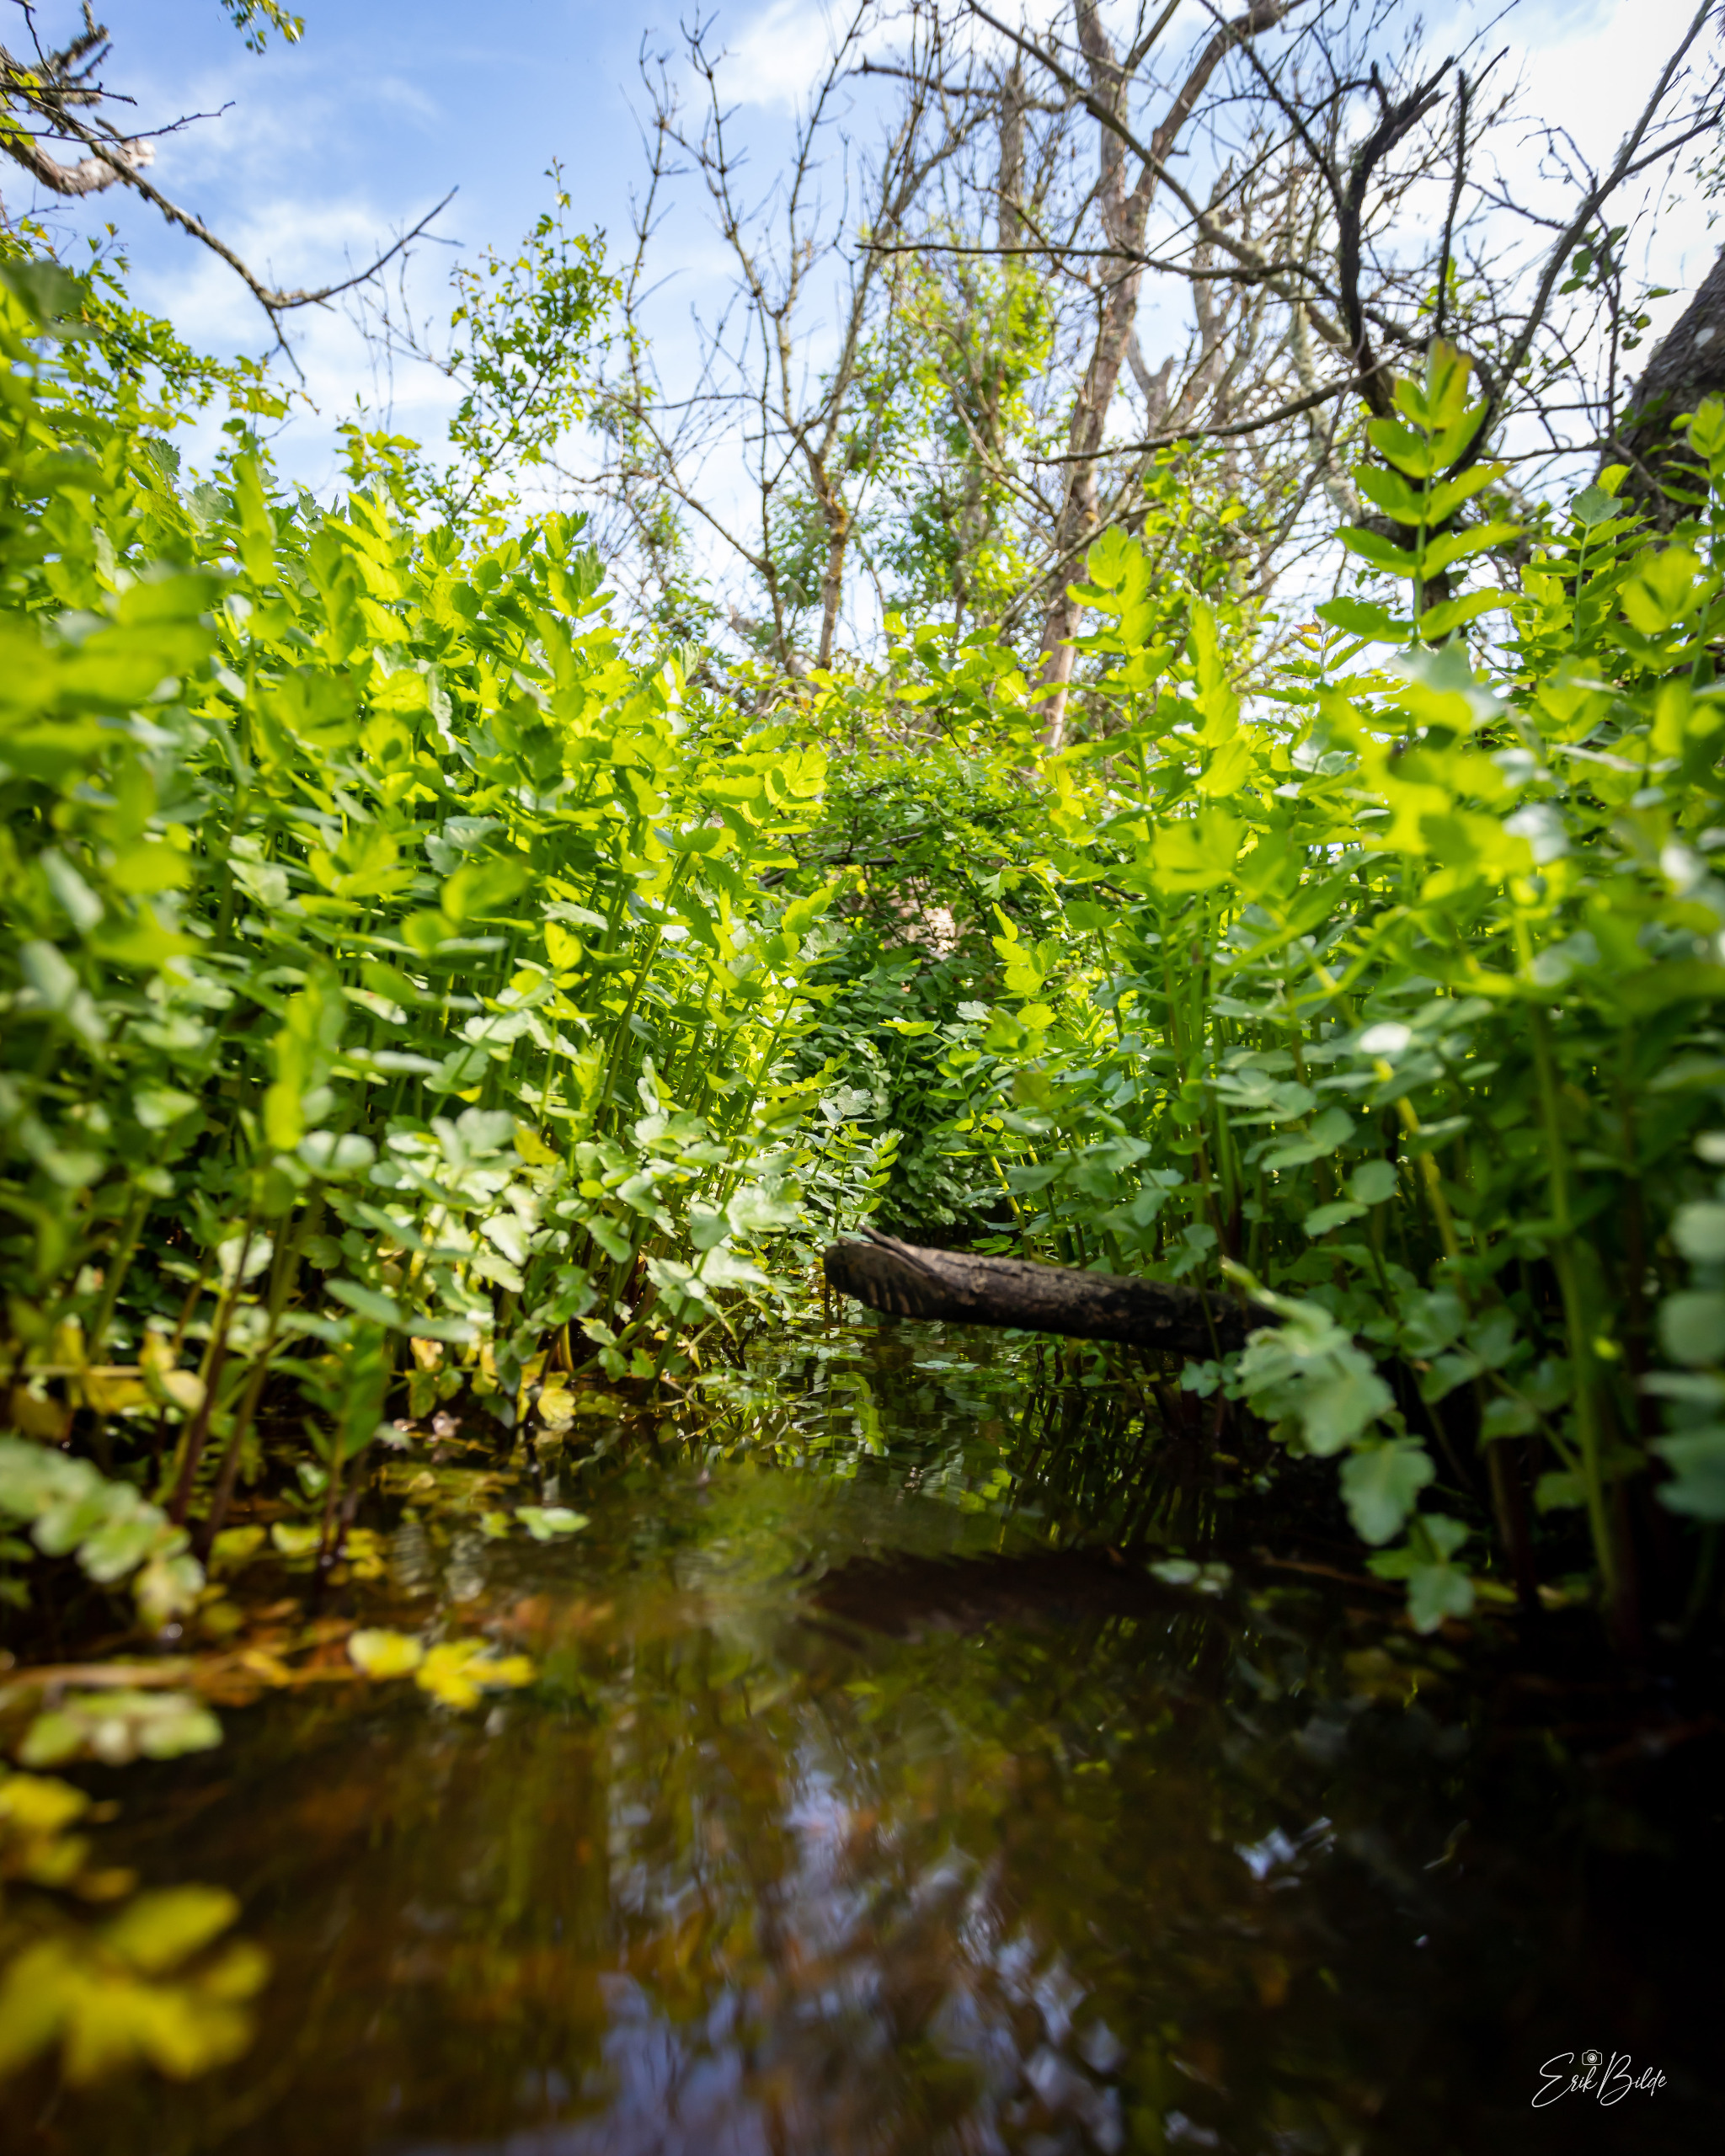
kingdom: Plantae
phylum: Tracheophyta
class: Magnoliopsida
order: Apiales
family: Apiaceae
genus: Berula
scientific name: Berula erecta
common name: Sideskærm
